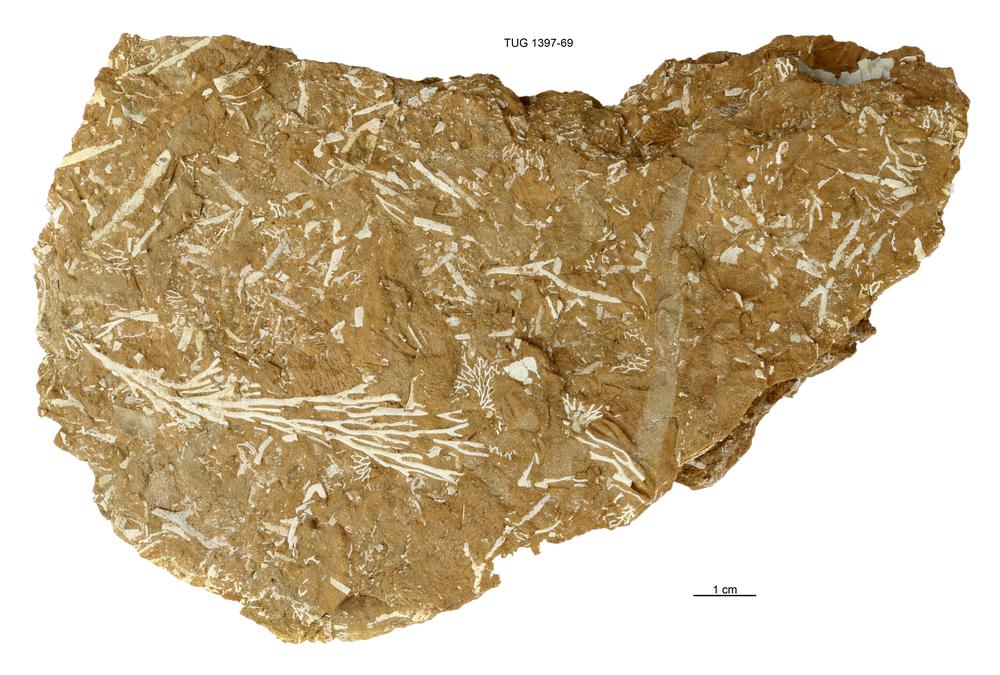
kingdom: Animalia
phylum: Bryozoa
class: Stenolaemata
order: Fenestrida
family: Phylloporinidae
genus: Pseudohornera
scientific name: Pseudohornera bifida
